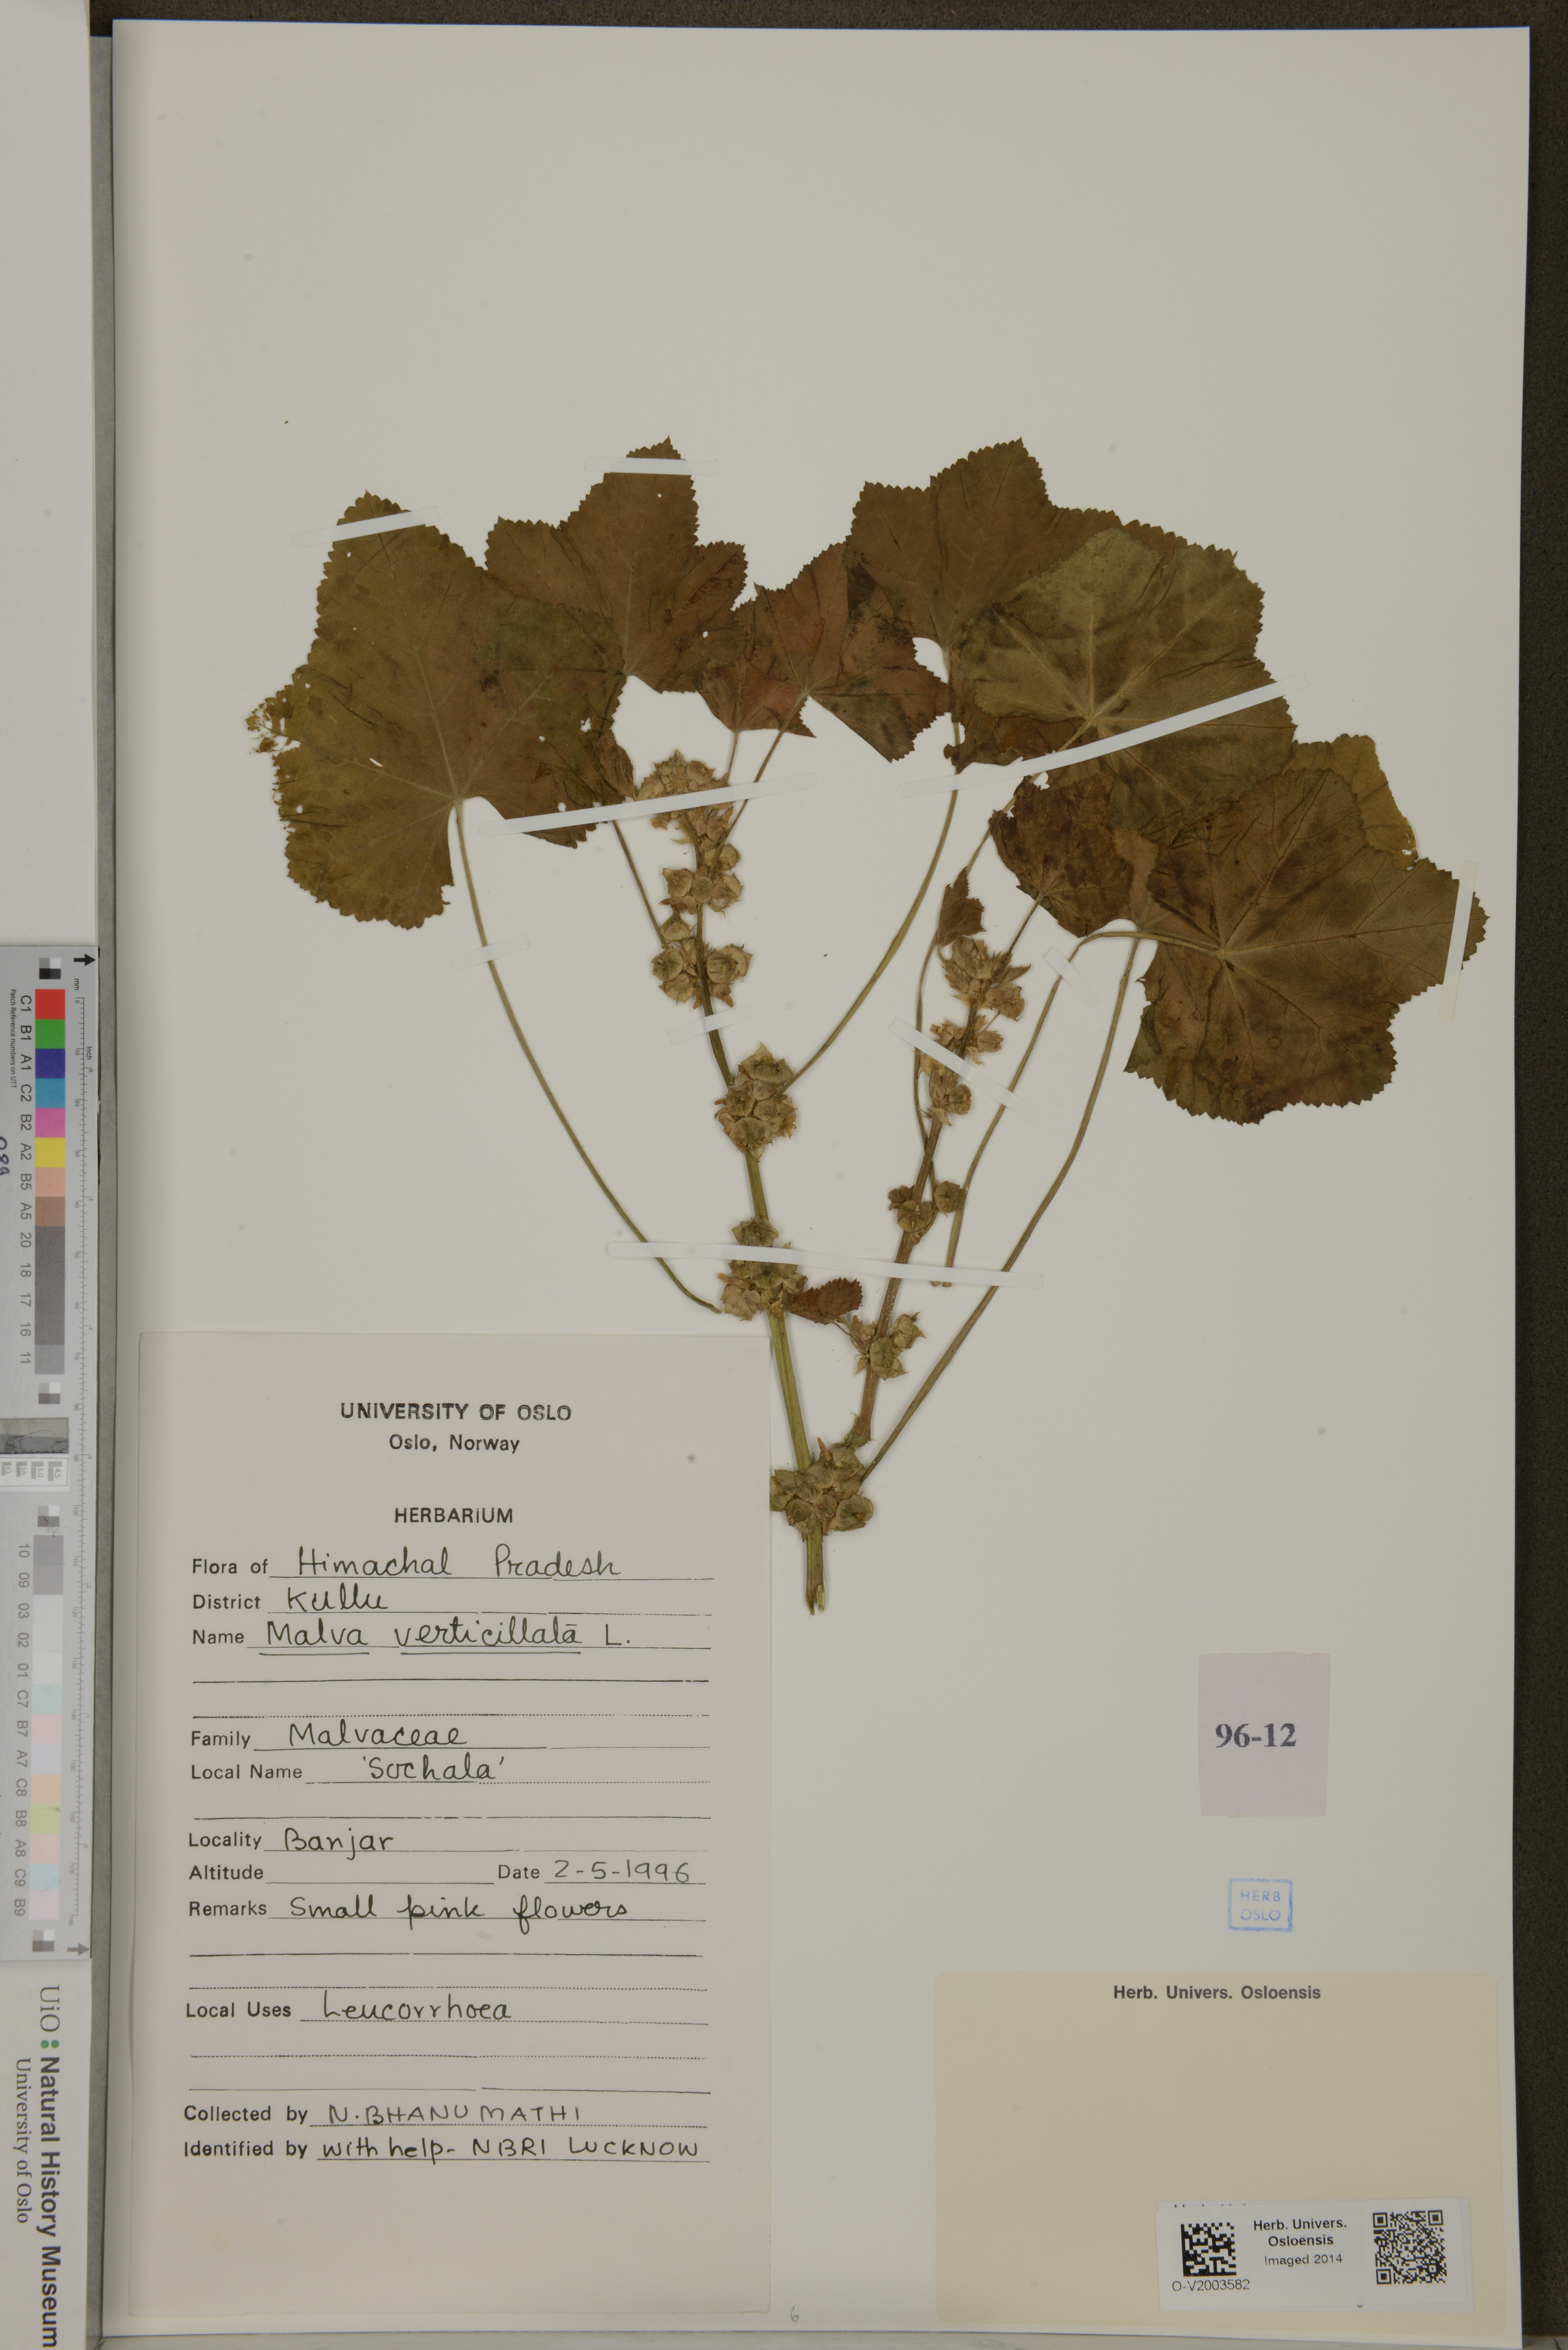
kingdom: Plantae
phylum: Tracheophyta
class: Magnoliopsida
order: Malvales
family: Malvaceae
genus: Malva
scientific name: Malva verticillata
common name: Chinese mallow
